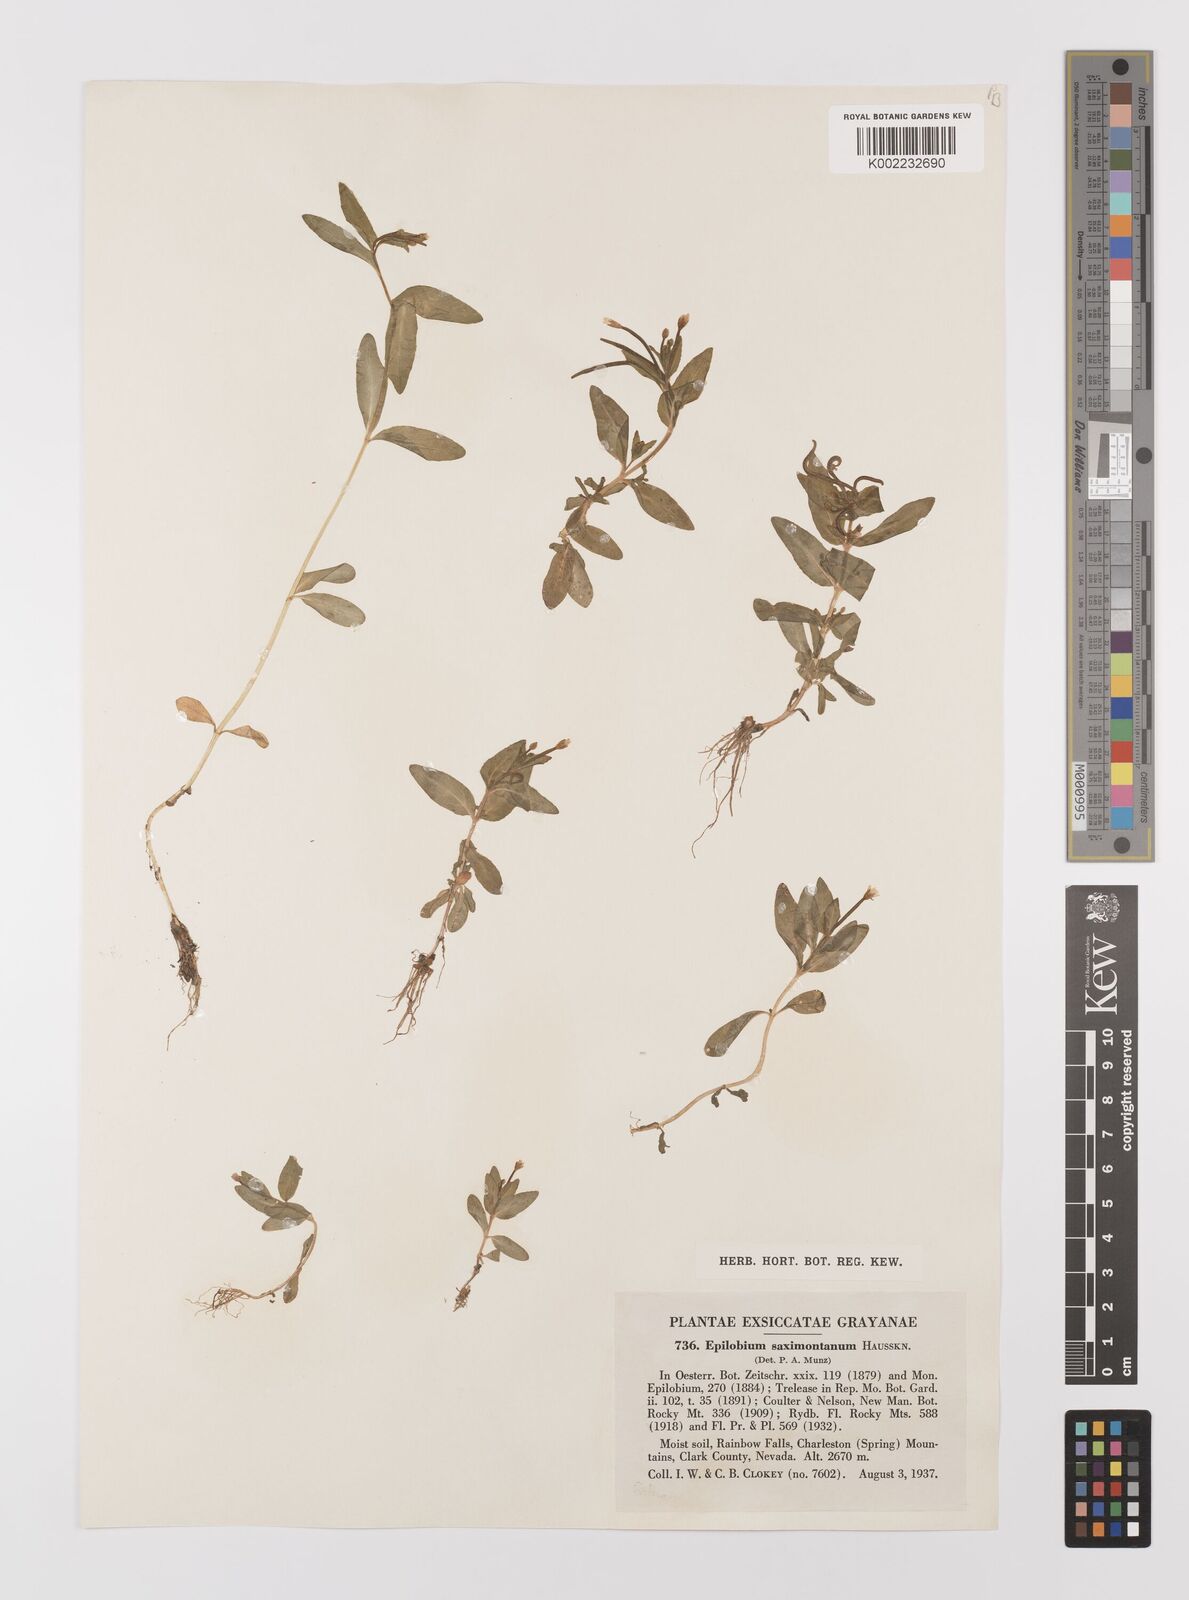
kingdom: Plantae
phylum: Tracheophyta
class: Magnoliopsida
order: Myrtales
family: Onagraceae
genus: Epilobium
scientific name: Epilobium saximontanum
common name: Rocky mountain willowherb
